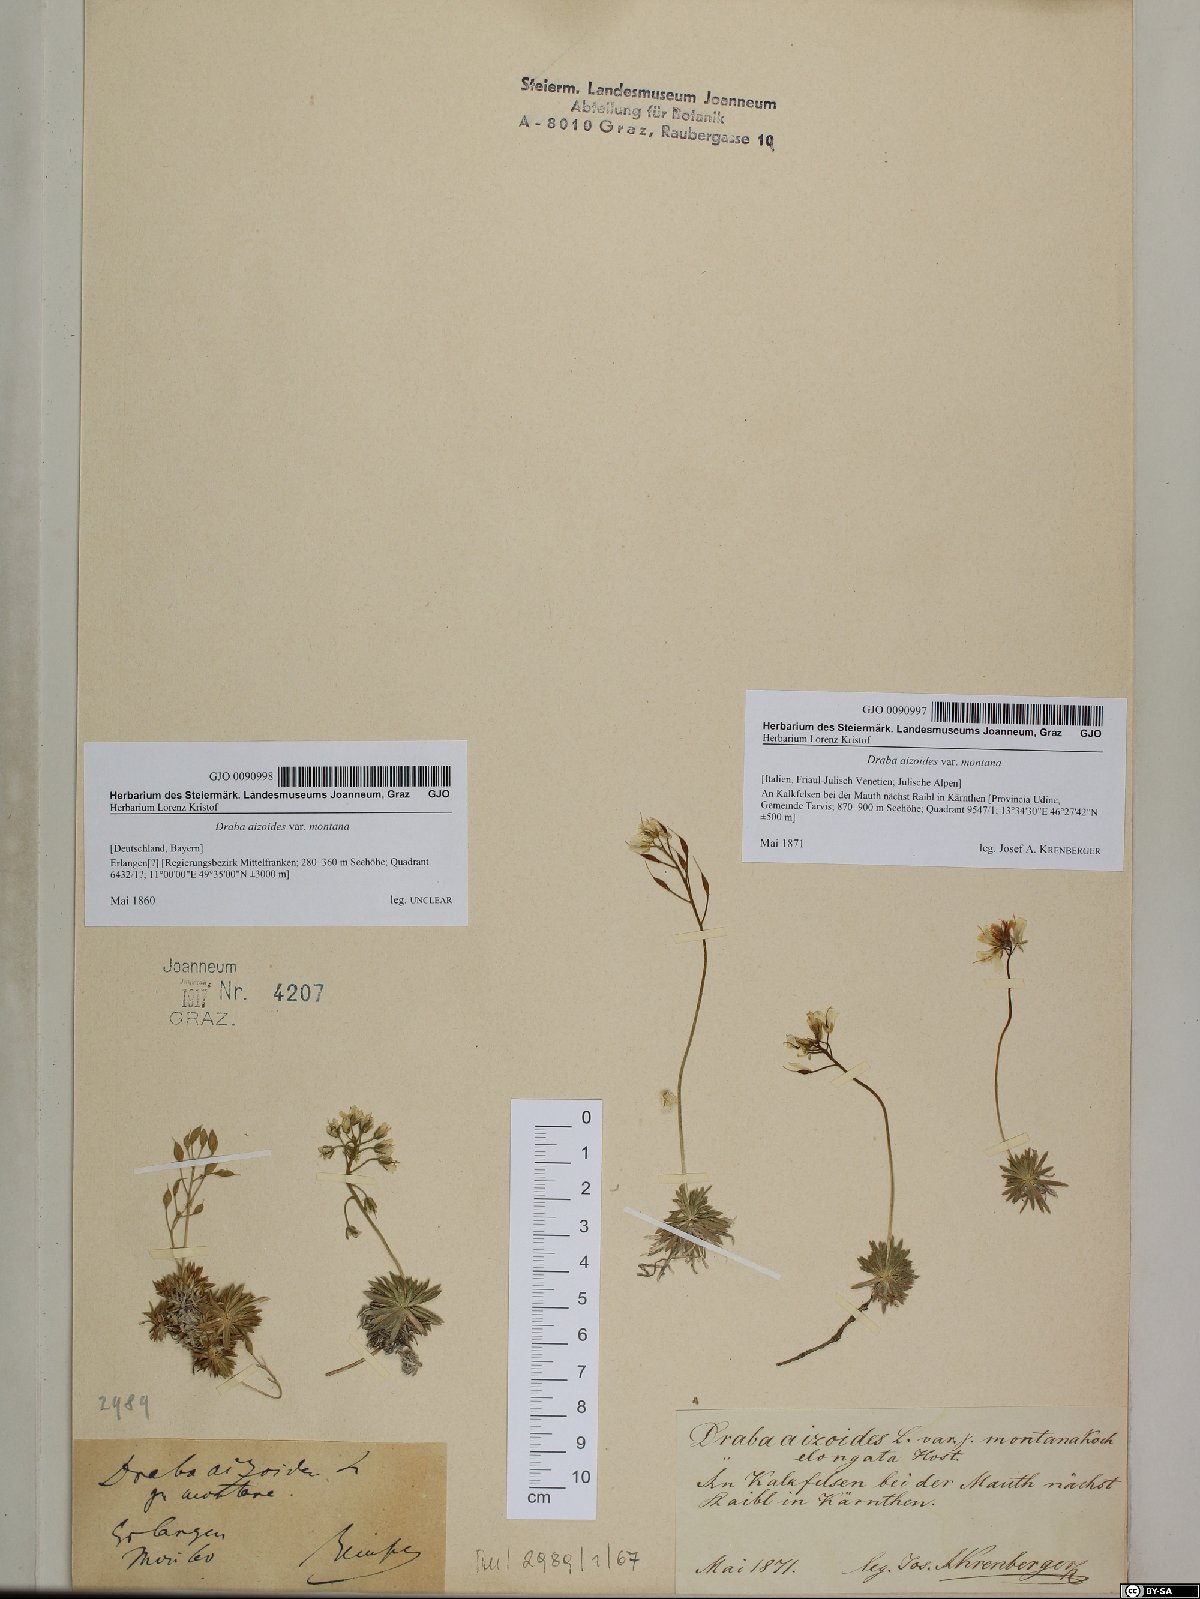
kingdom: Plantae
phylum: Tracheophyta
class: Magnoliopsida
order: Brassicales
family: Brassicaceae
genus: Draba
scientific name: Draba aizoides
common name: Yellow whitlowgrass
